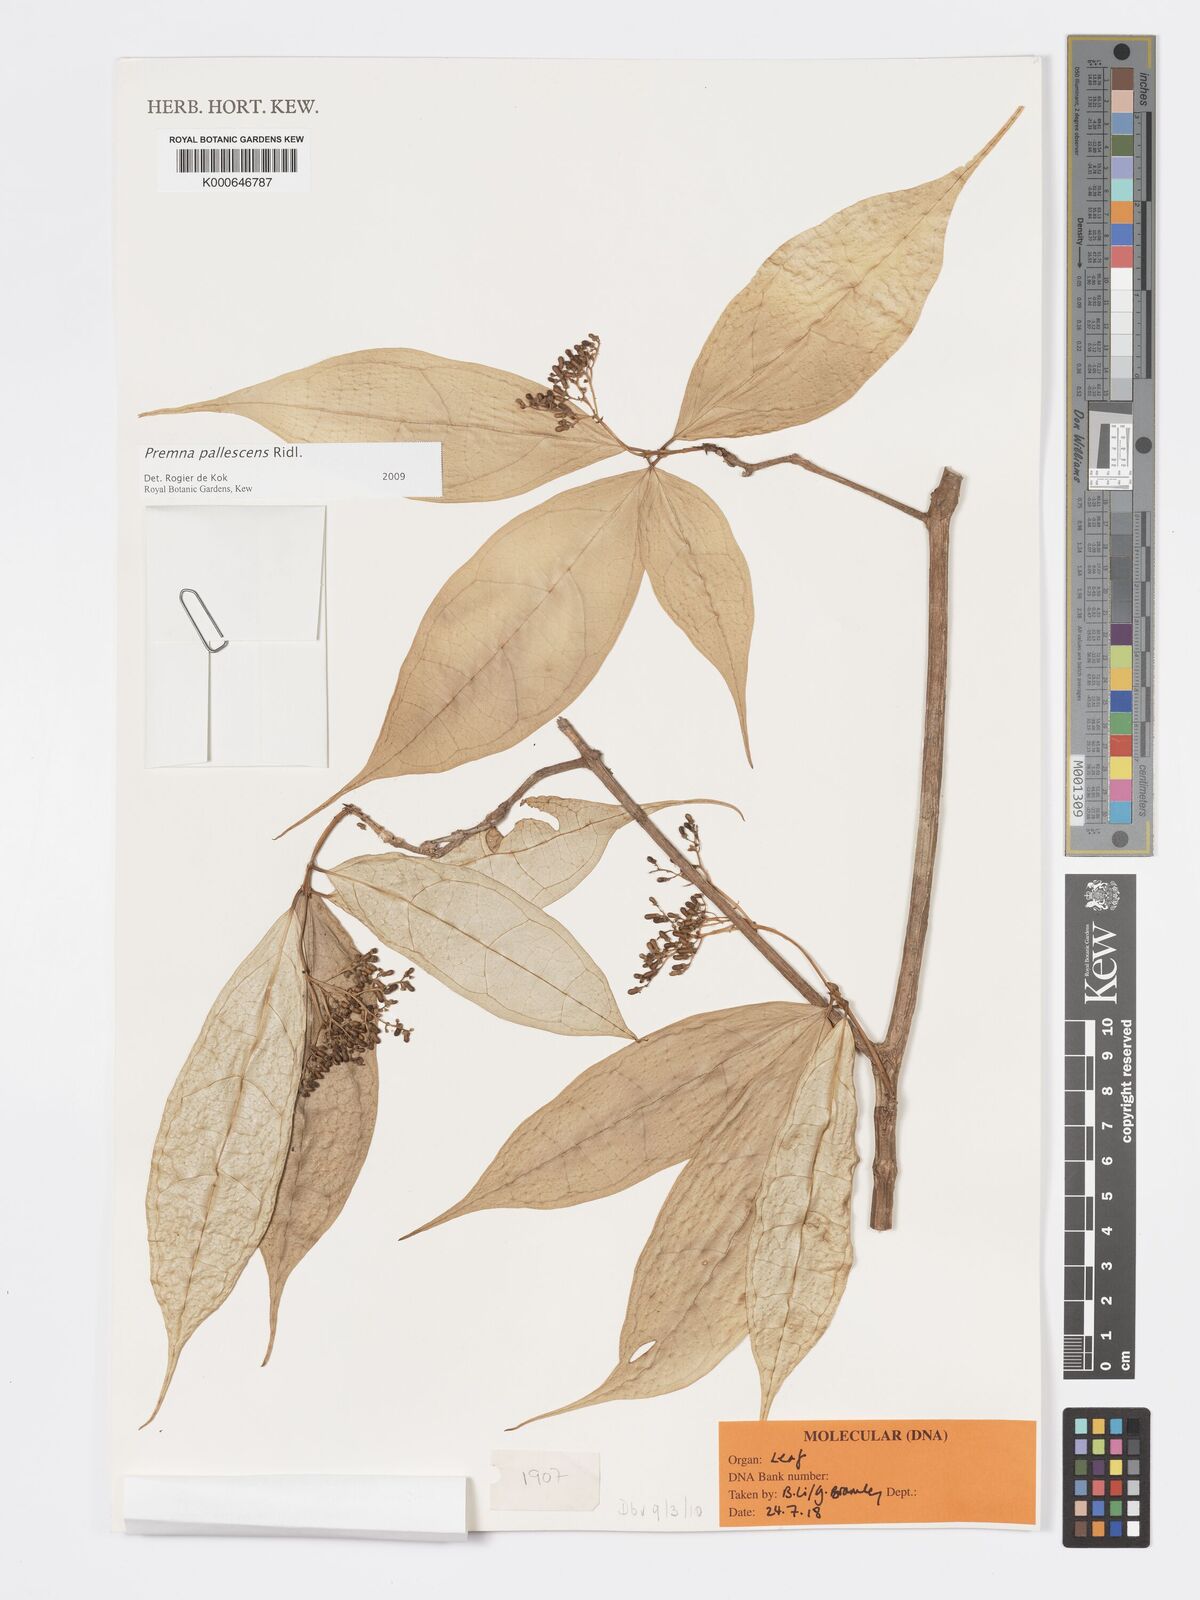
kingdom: Plantae
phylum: Tracheophyta
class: Magnoliopsida
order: Lamiales
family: Lamiaceae
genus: Premna
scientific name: Premna pallescens
